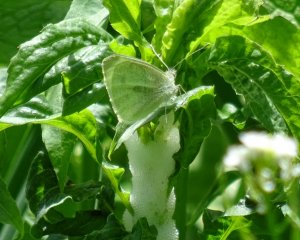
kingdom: Animalia
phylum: Arthropoda
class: Insecta
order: Lepidoptera
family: Pieridae
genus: Pieris
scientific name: Pieris rapae
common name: Cabbage White
